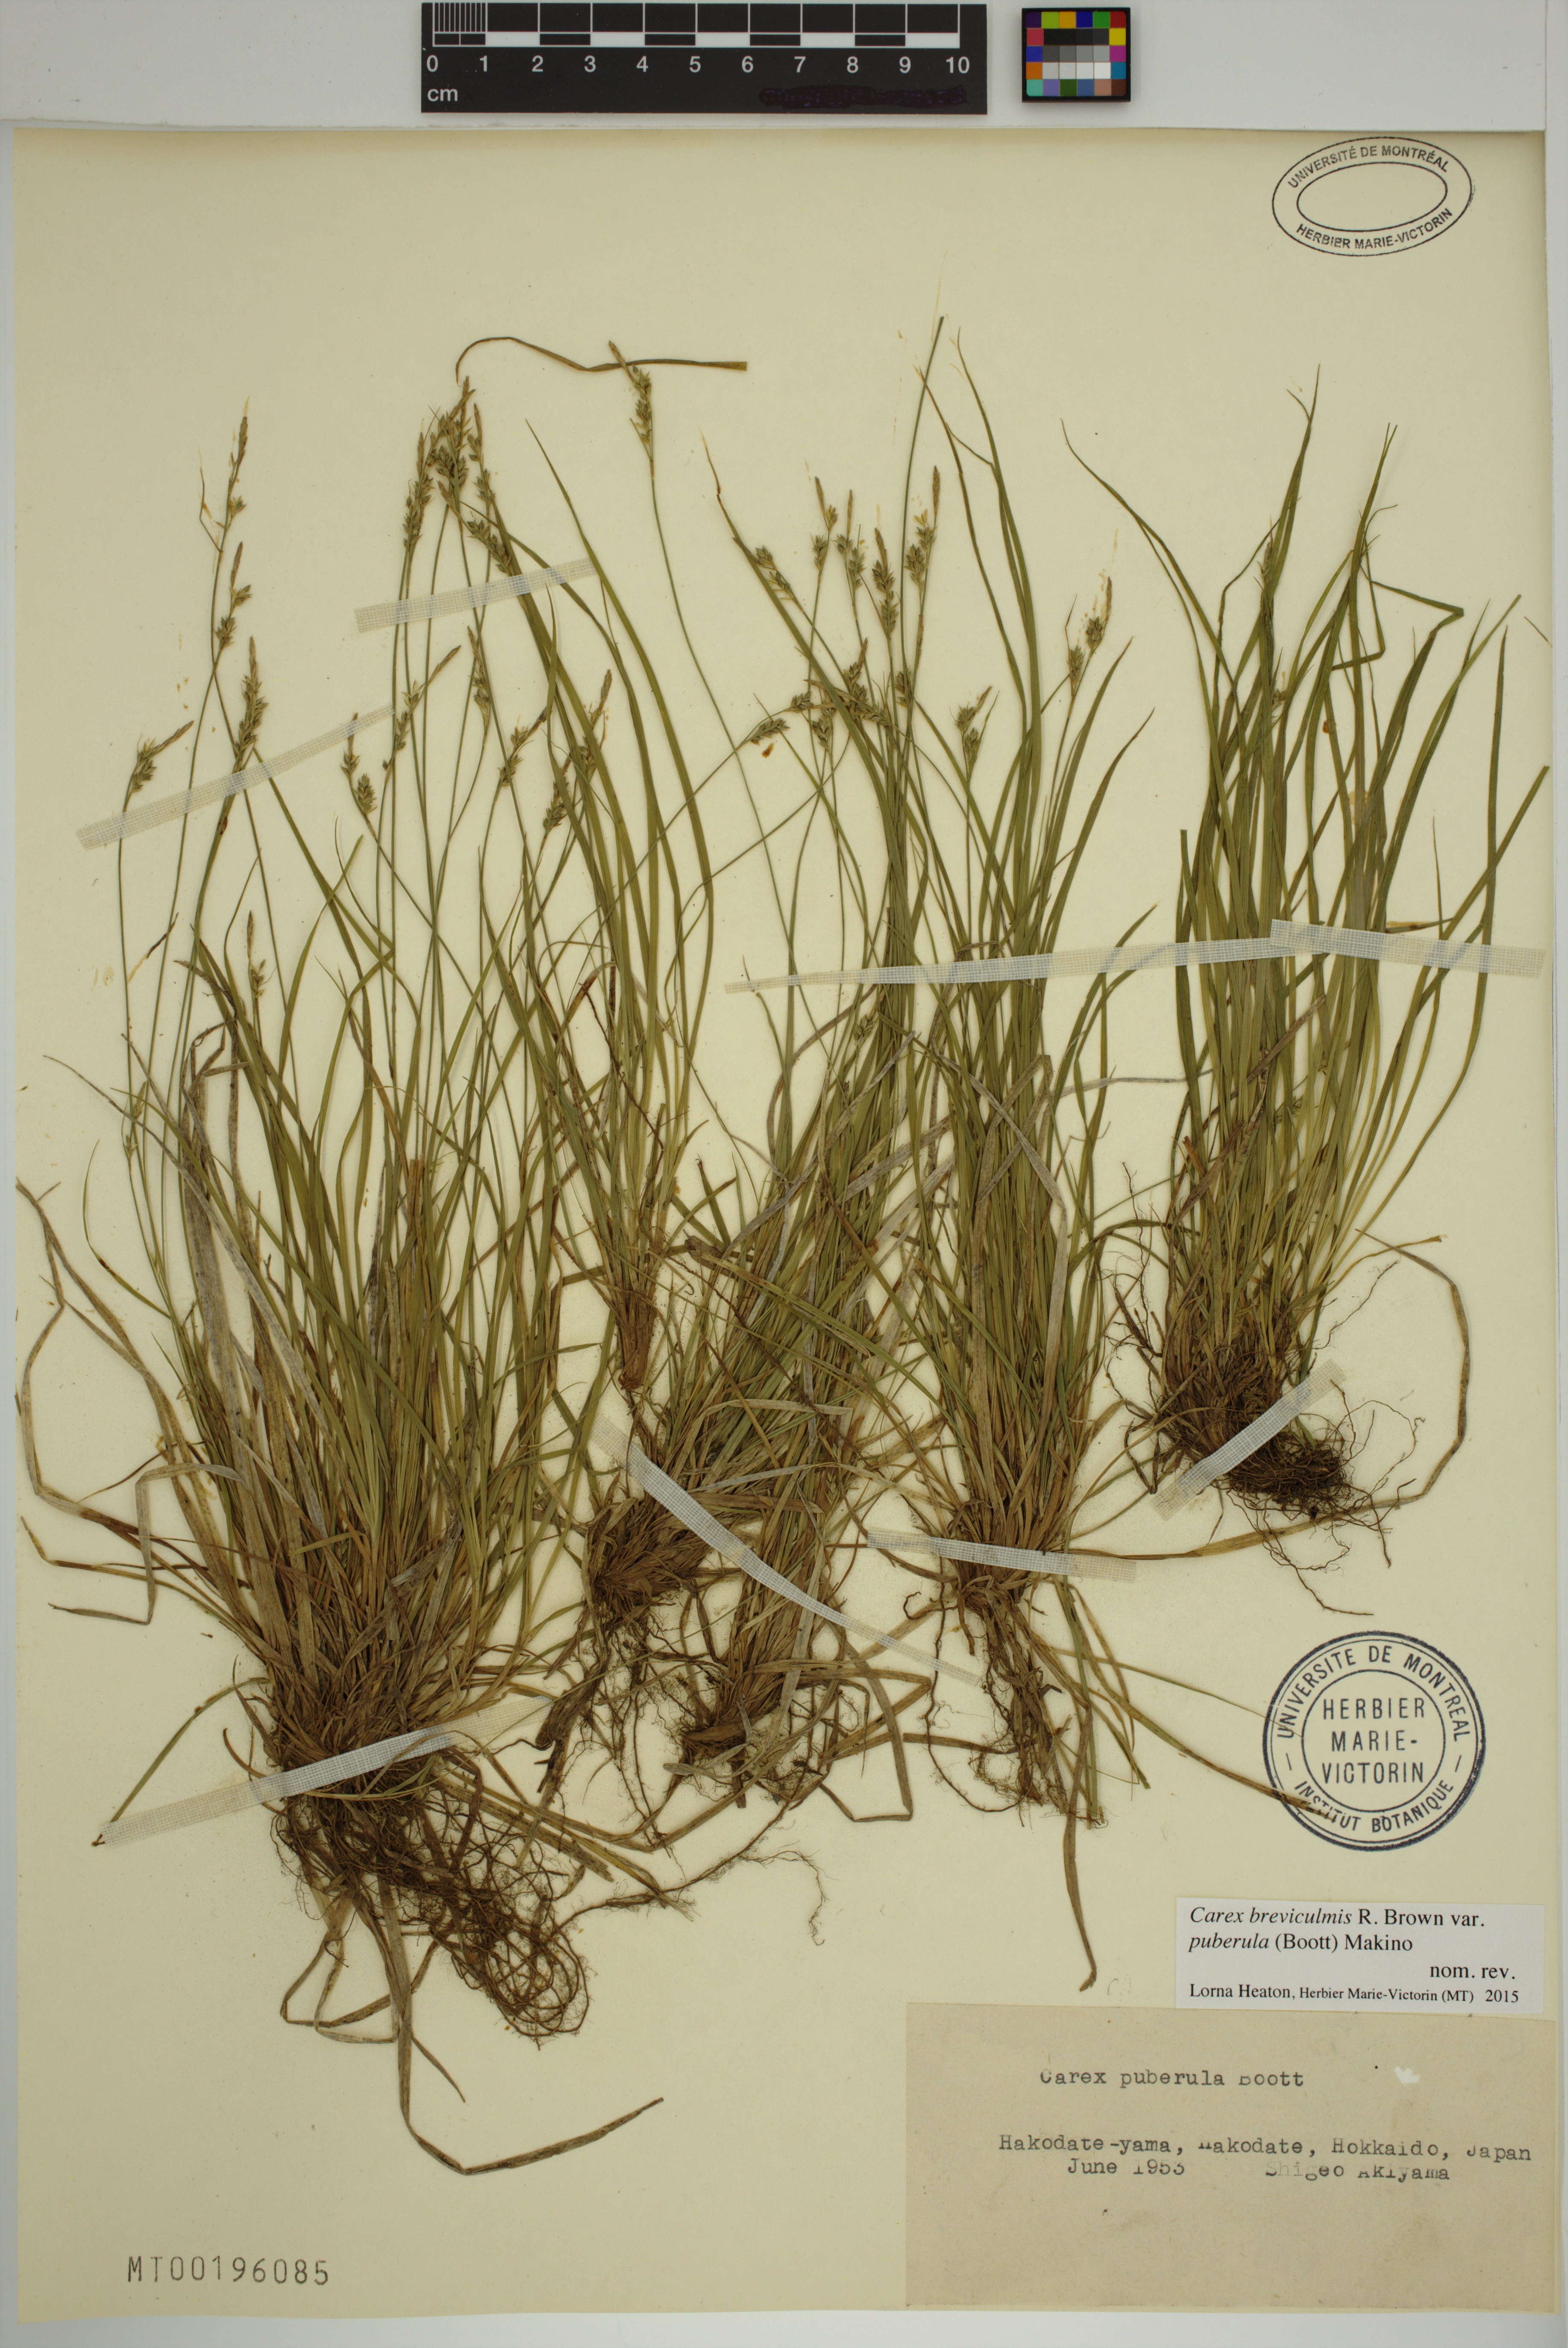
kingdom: Plantae
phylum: Tracheophyta
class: Liliopsida
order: Poales
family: Cyperaceae
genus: Carex
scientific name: Carex leucochlora
